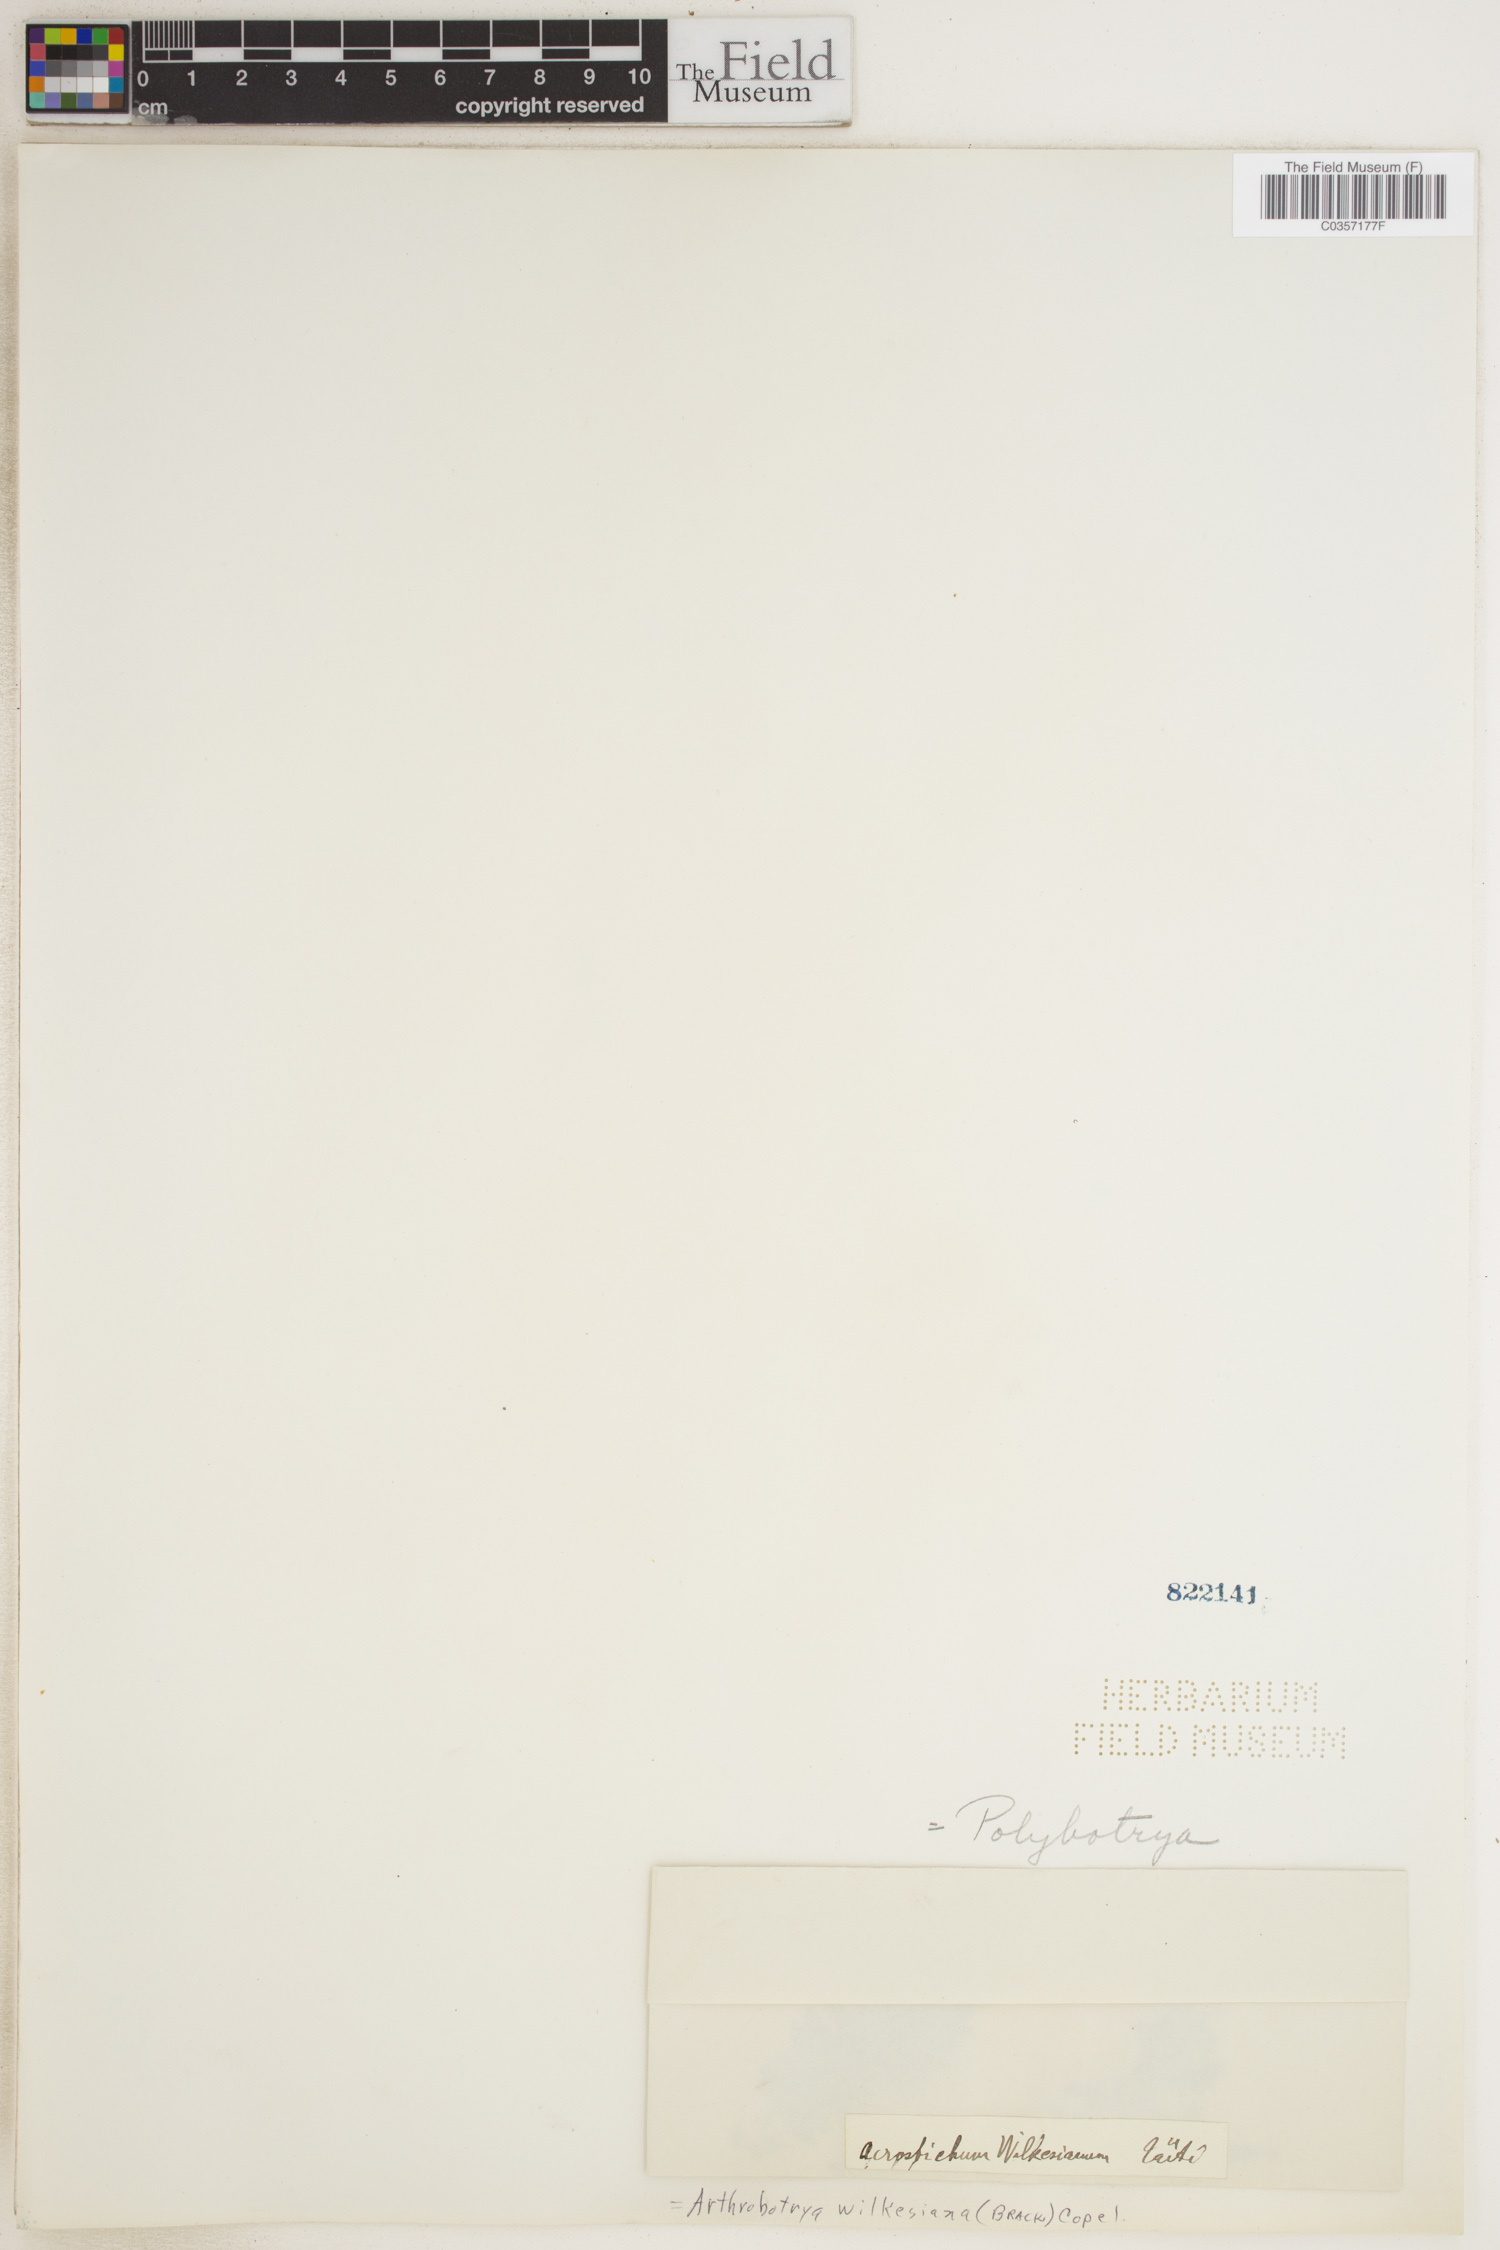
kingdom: Plantae
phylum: Tracheophyta
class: Polypodiopsida
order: Polypodiales
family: Dryopteridaceae
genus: Arthrobotrya
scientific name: Arthrobotrya wilkesiana
